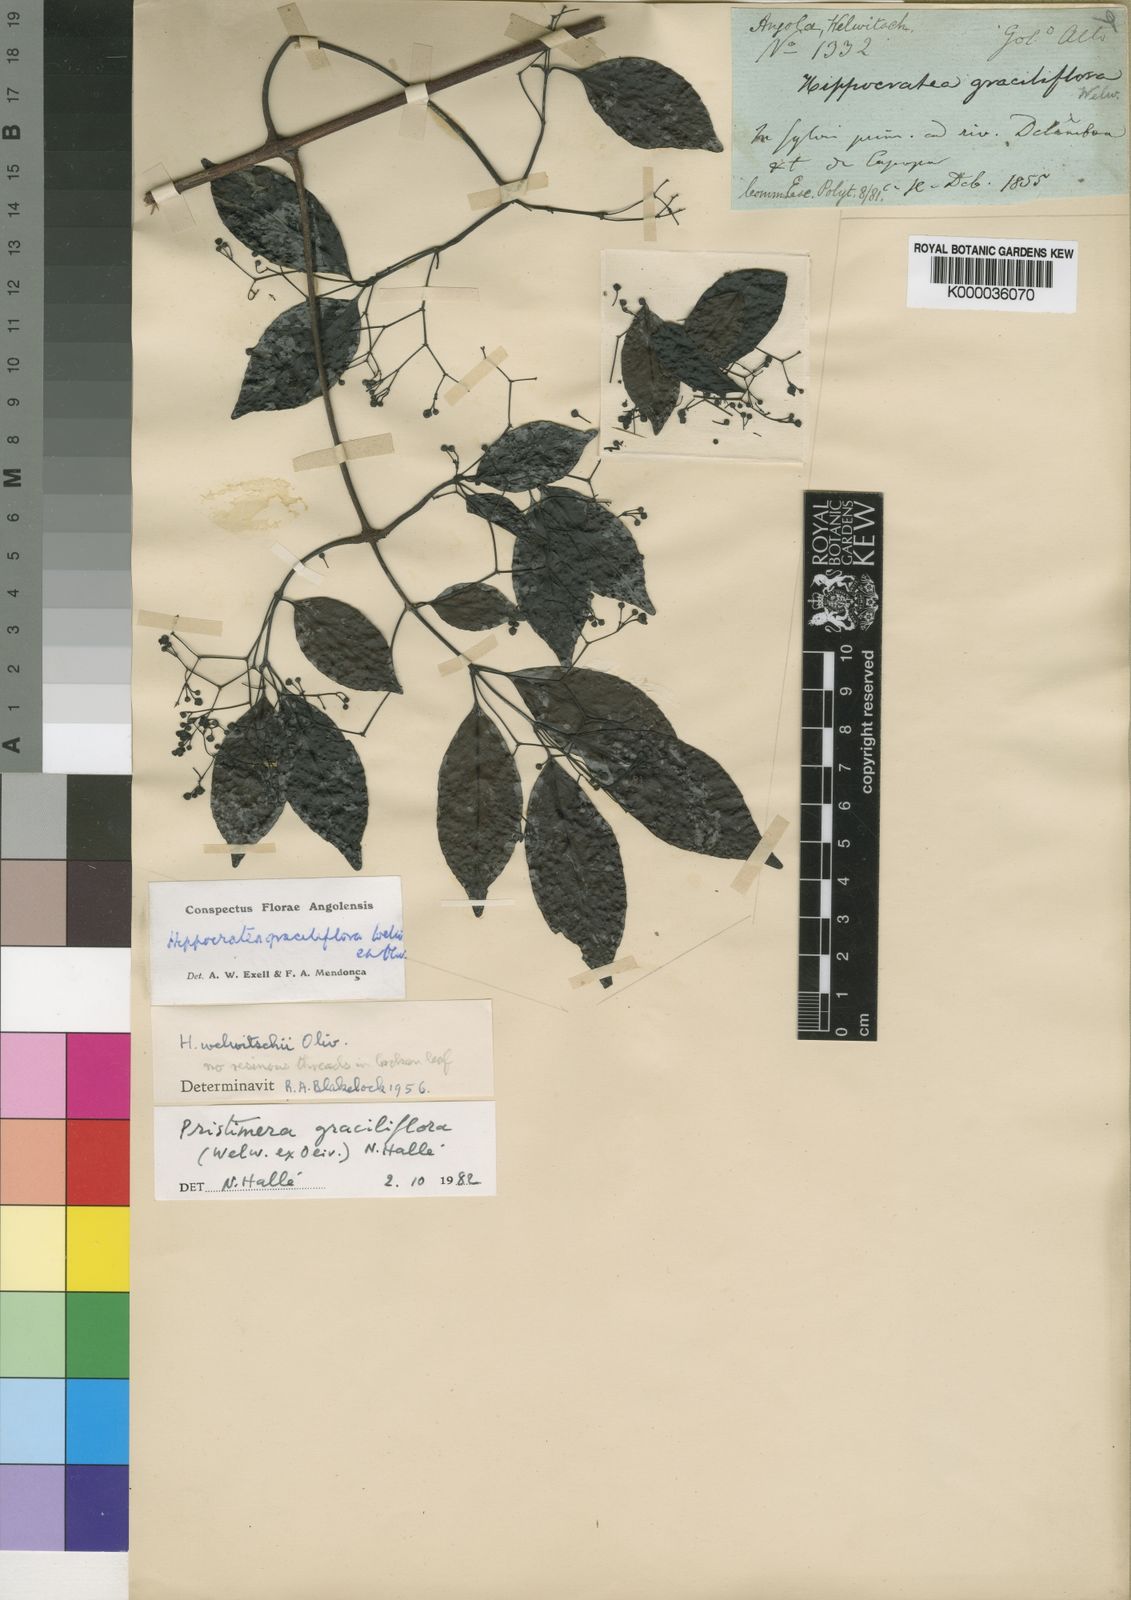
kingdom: Plantae
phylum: Tracheophyta
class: Magnoliopsida
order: Celastrales
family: Celastraceae
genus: Pristimera
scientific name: Pristimera
